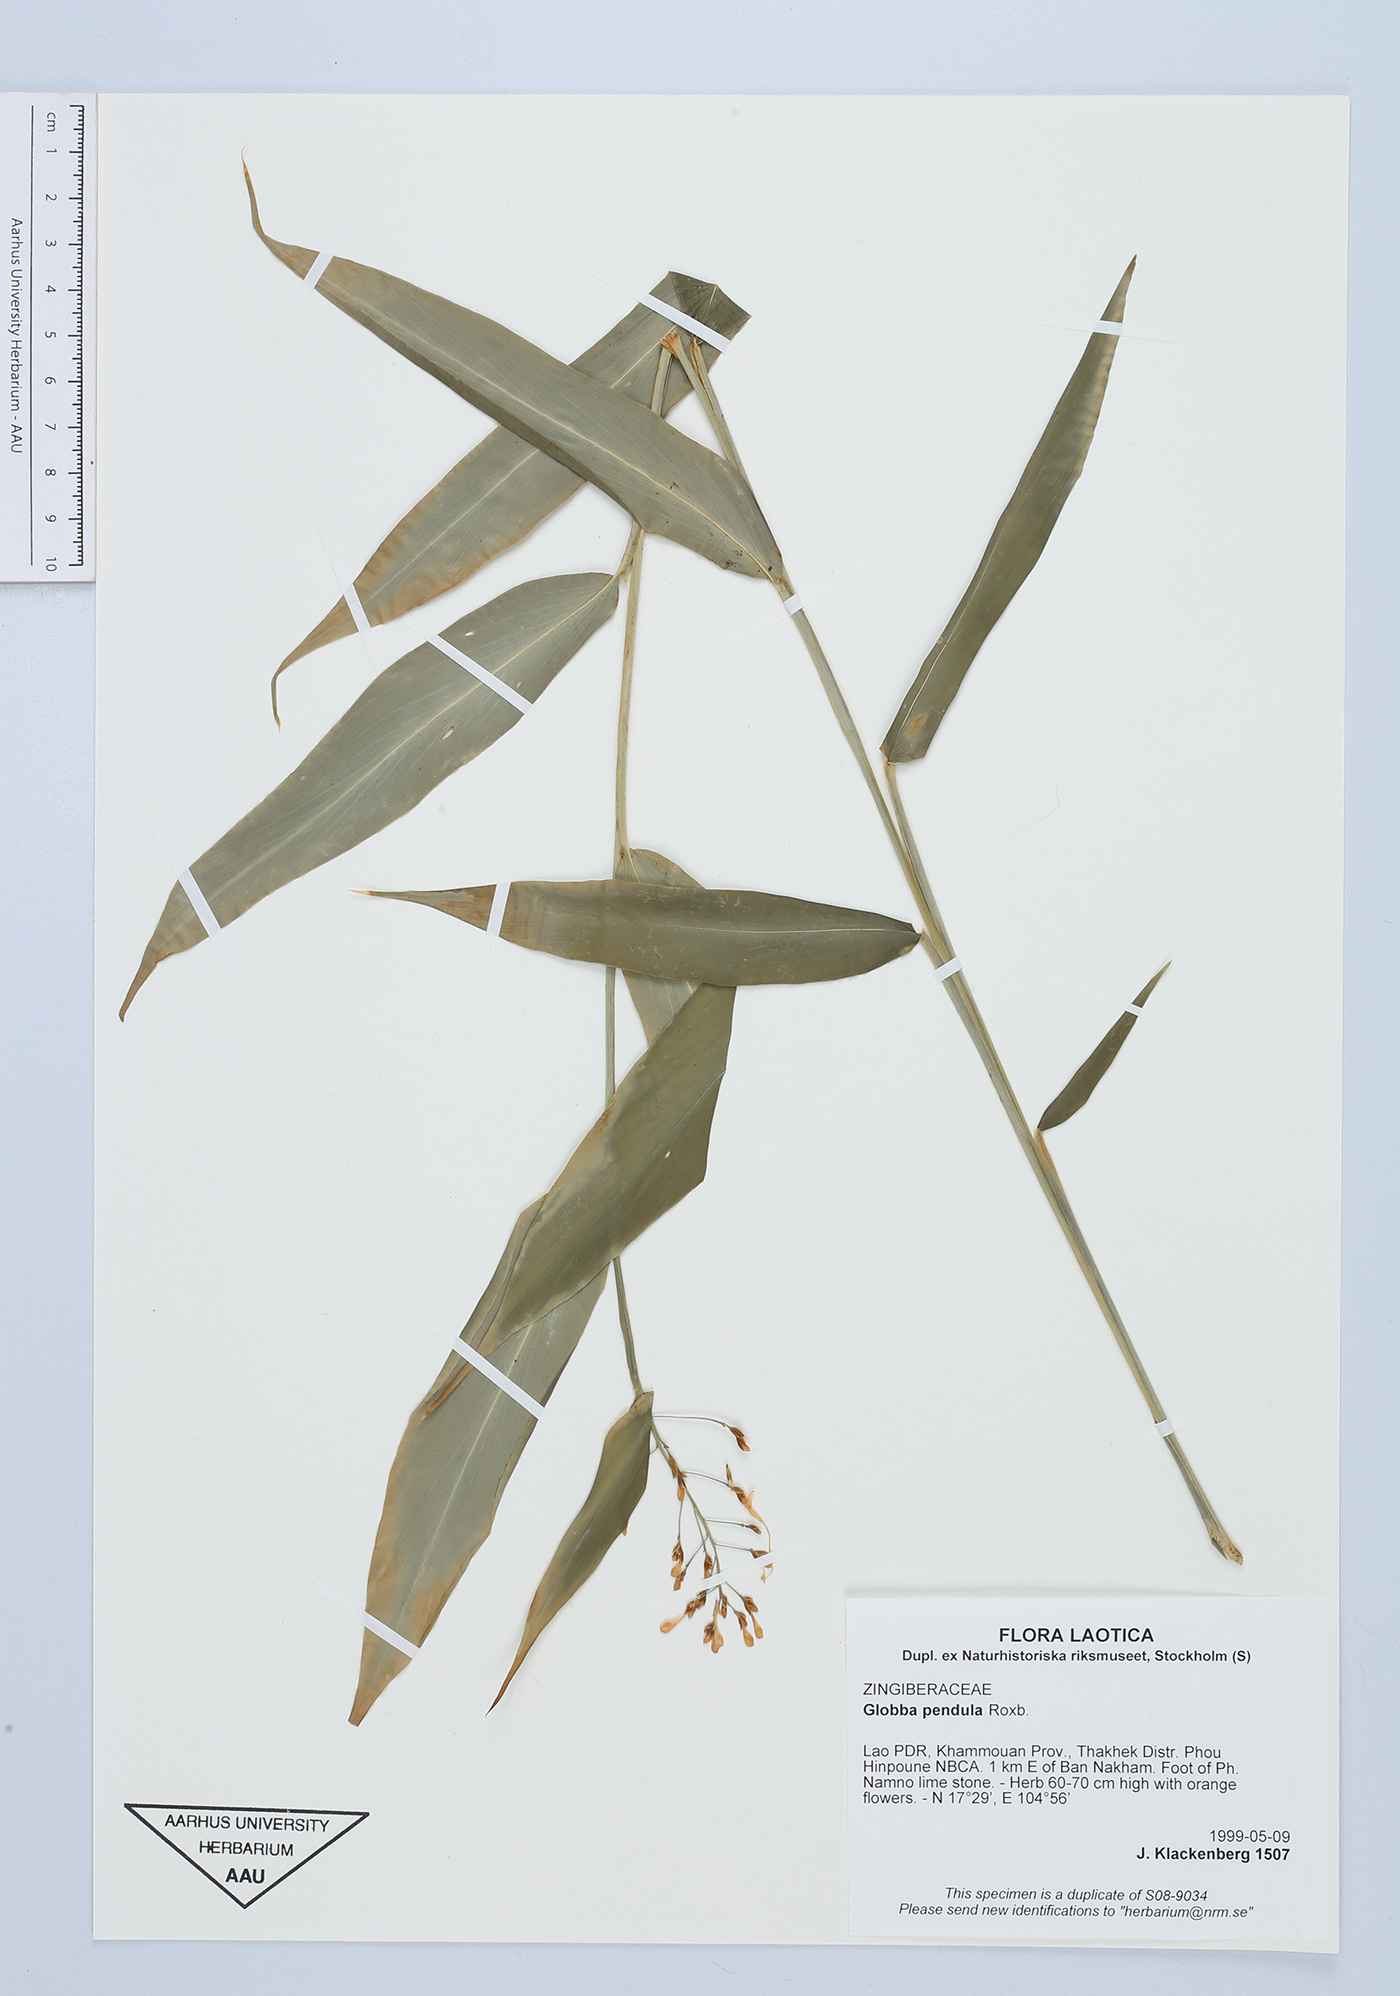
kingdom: Plantae
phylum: Tracheophyta
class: Liliopsida
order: Zingiberales
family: Zingiberaceae
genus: Globba
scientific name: Globba pendula
